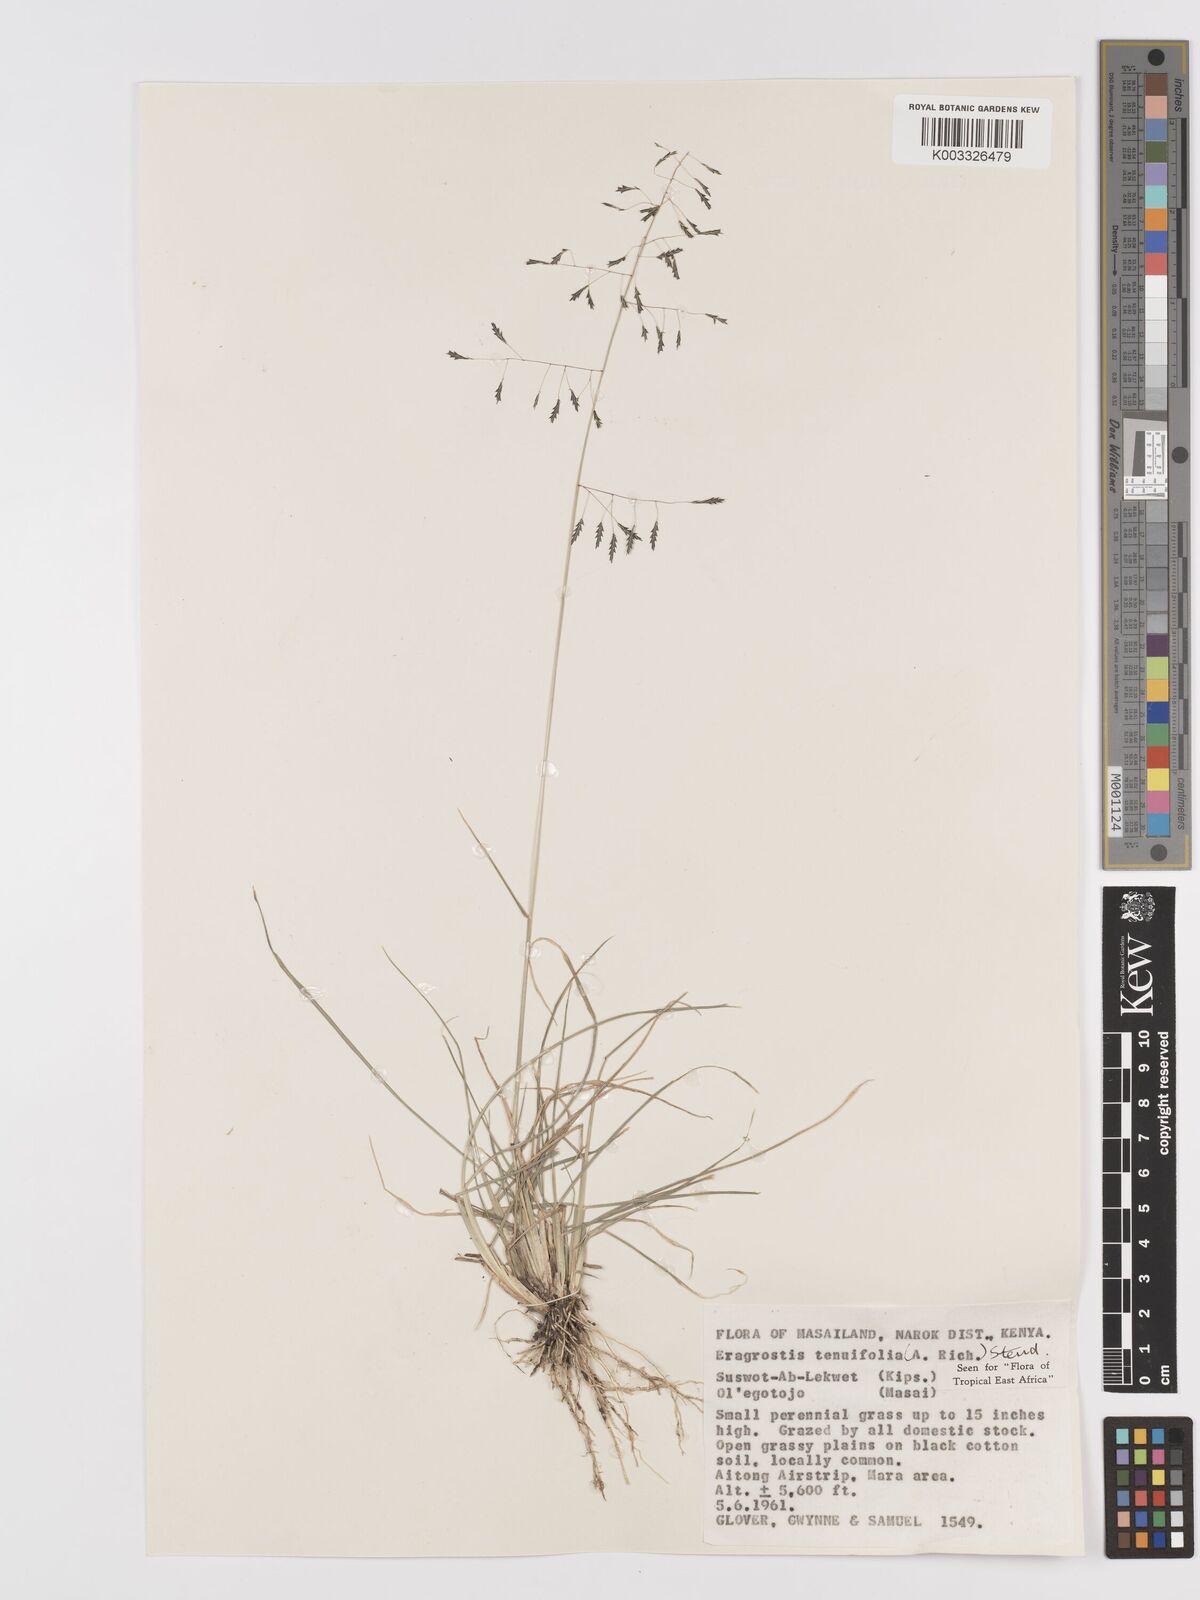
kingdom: Plantae
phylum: Tracheophyta
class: Liliopsida
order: Poales
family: Poaceae
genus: Eragrostis
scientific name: Eragrostis tenuifolia
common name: Elastic grass
